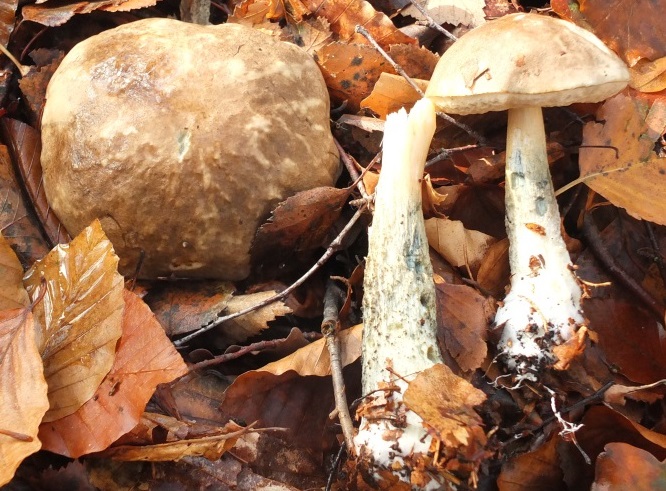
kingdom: Fungi
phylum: Basidiomycota
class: Agaricomycetes
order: Boletales
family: Boletaceae
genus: Leccinum
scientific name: Leccinum variicolor
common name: flammet skælrørhat
